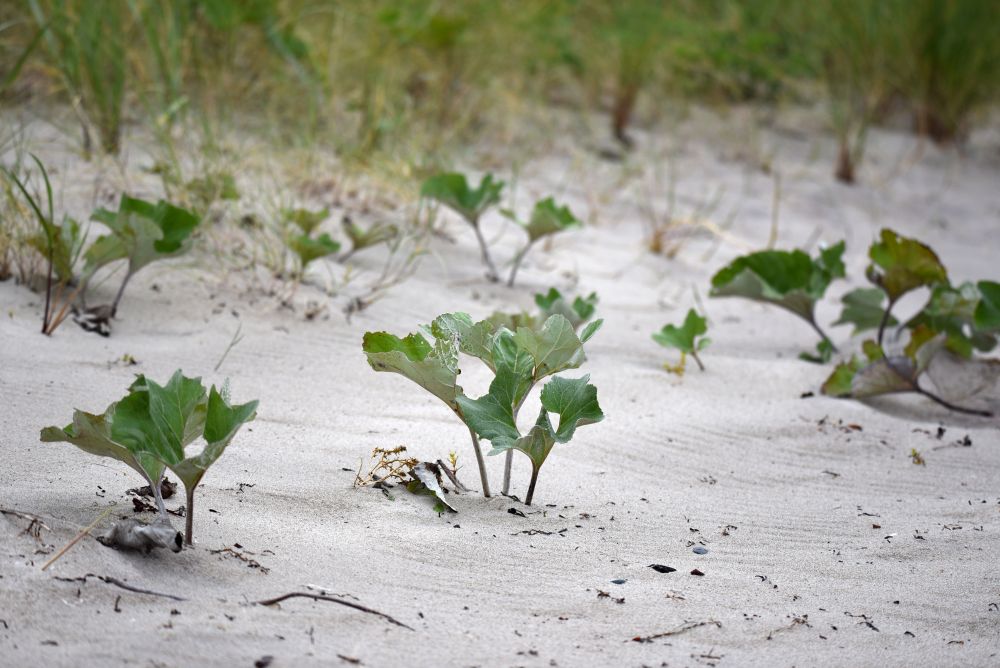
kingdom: Plantae
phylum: Tracheophyta
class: Magnoliopsida
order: Asterales
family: Asteraceae
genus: Petasites
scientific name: Petasites spurius
